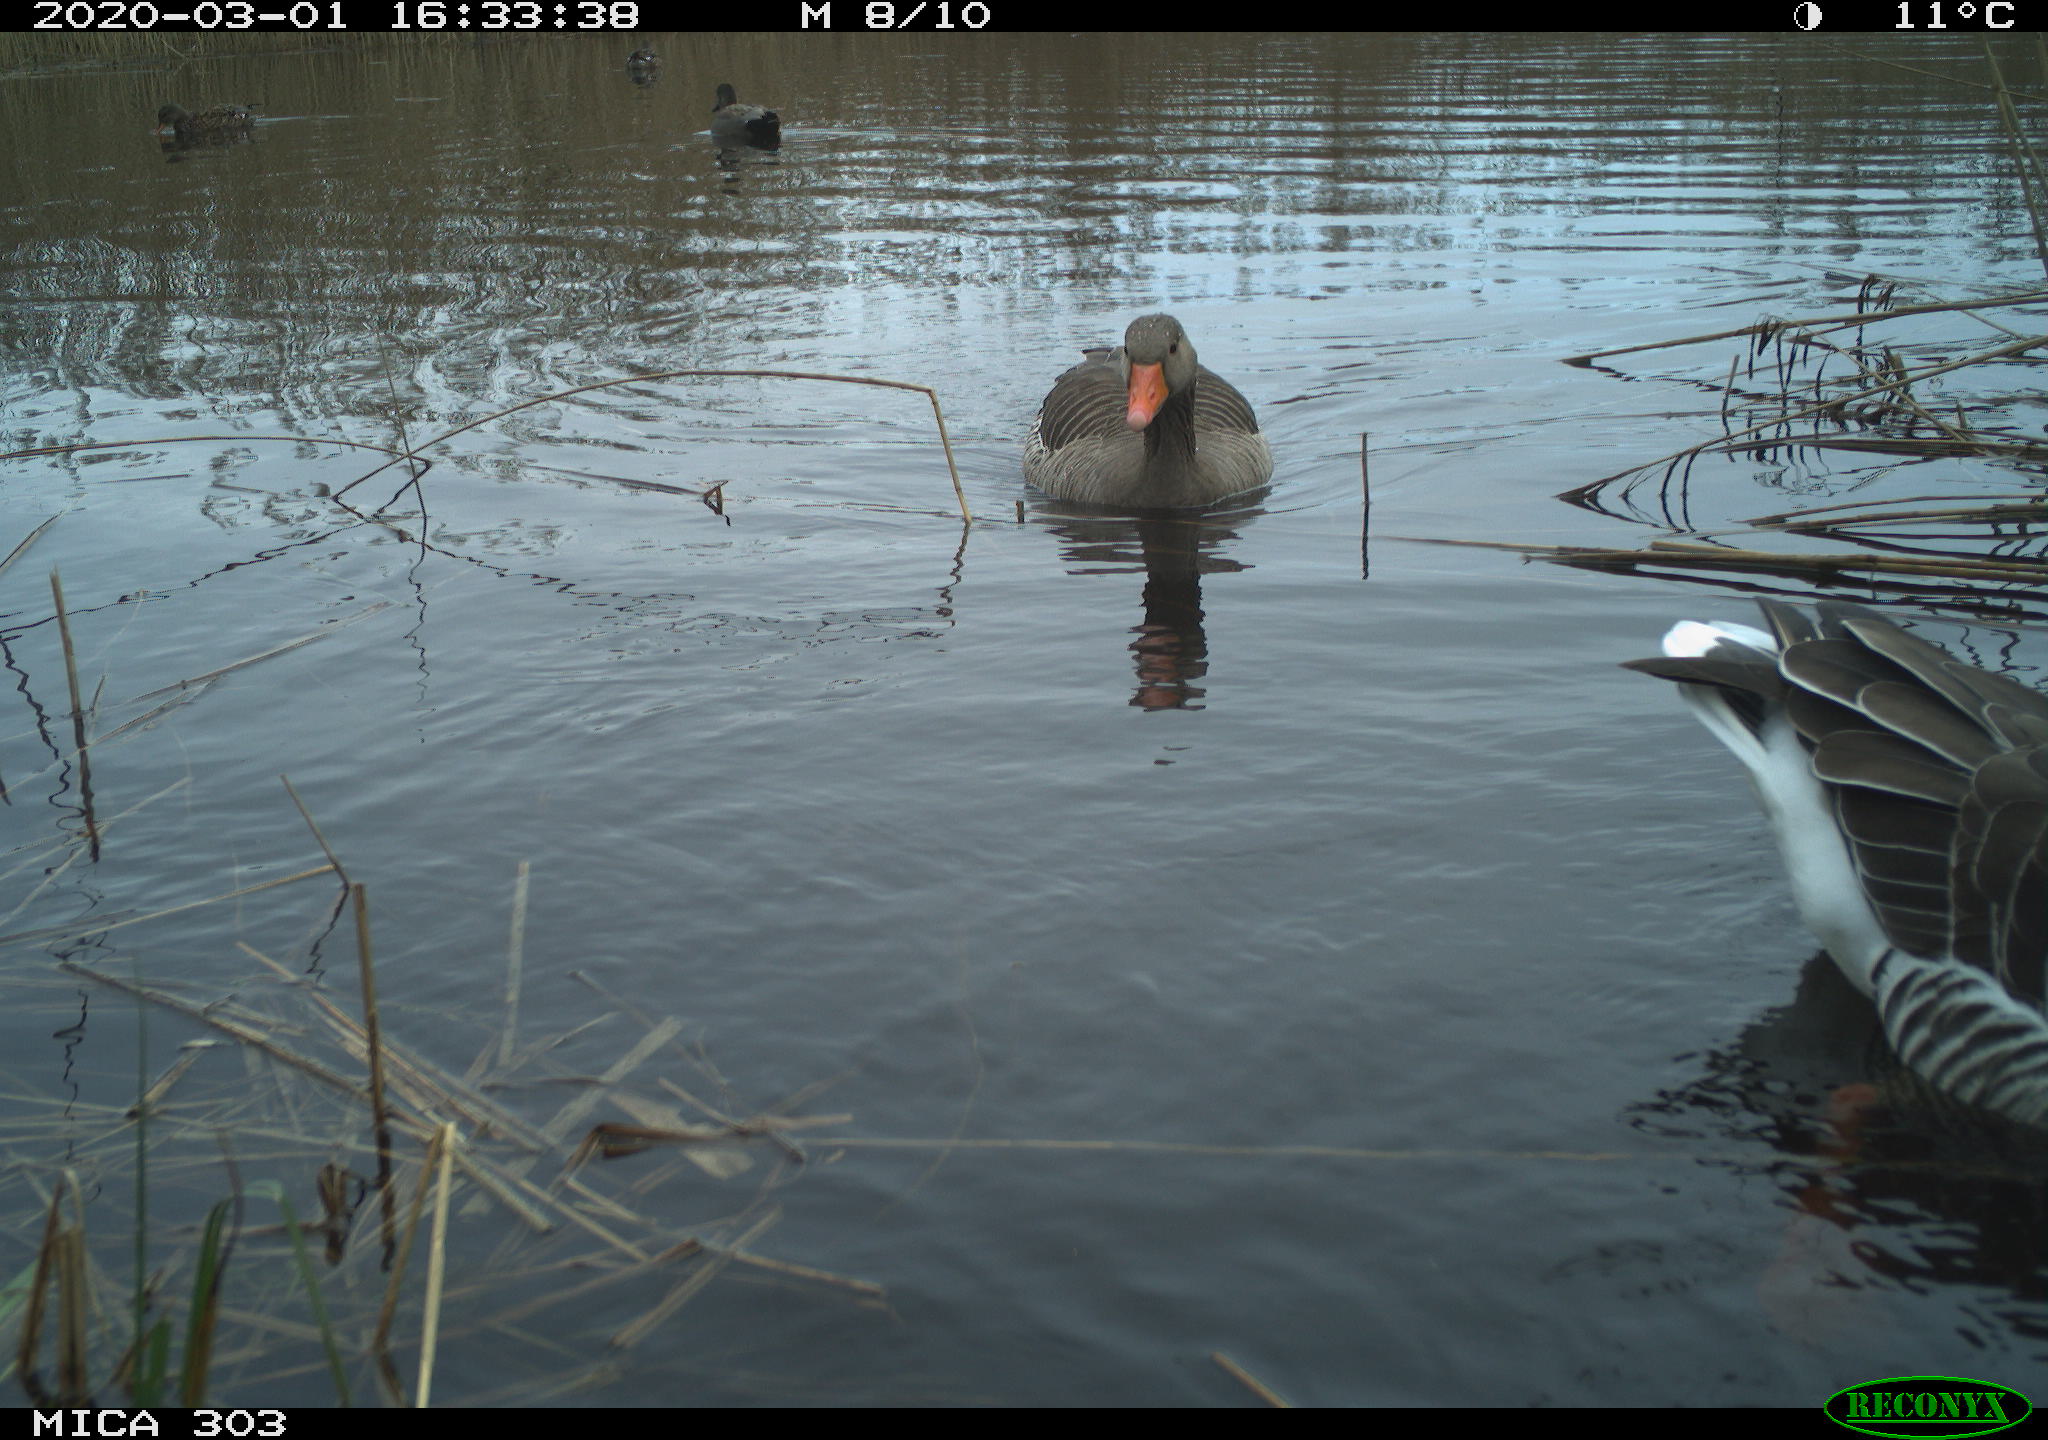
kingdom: Animalia
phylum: Chordata
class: Aves
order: Anseriformes
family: Anatidae
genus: Mareca
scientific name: Mareca strepera
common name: Gadwall
